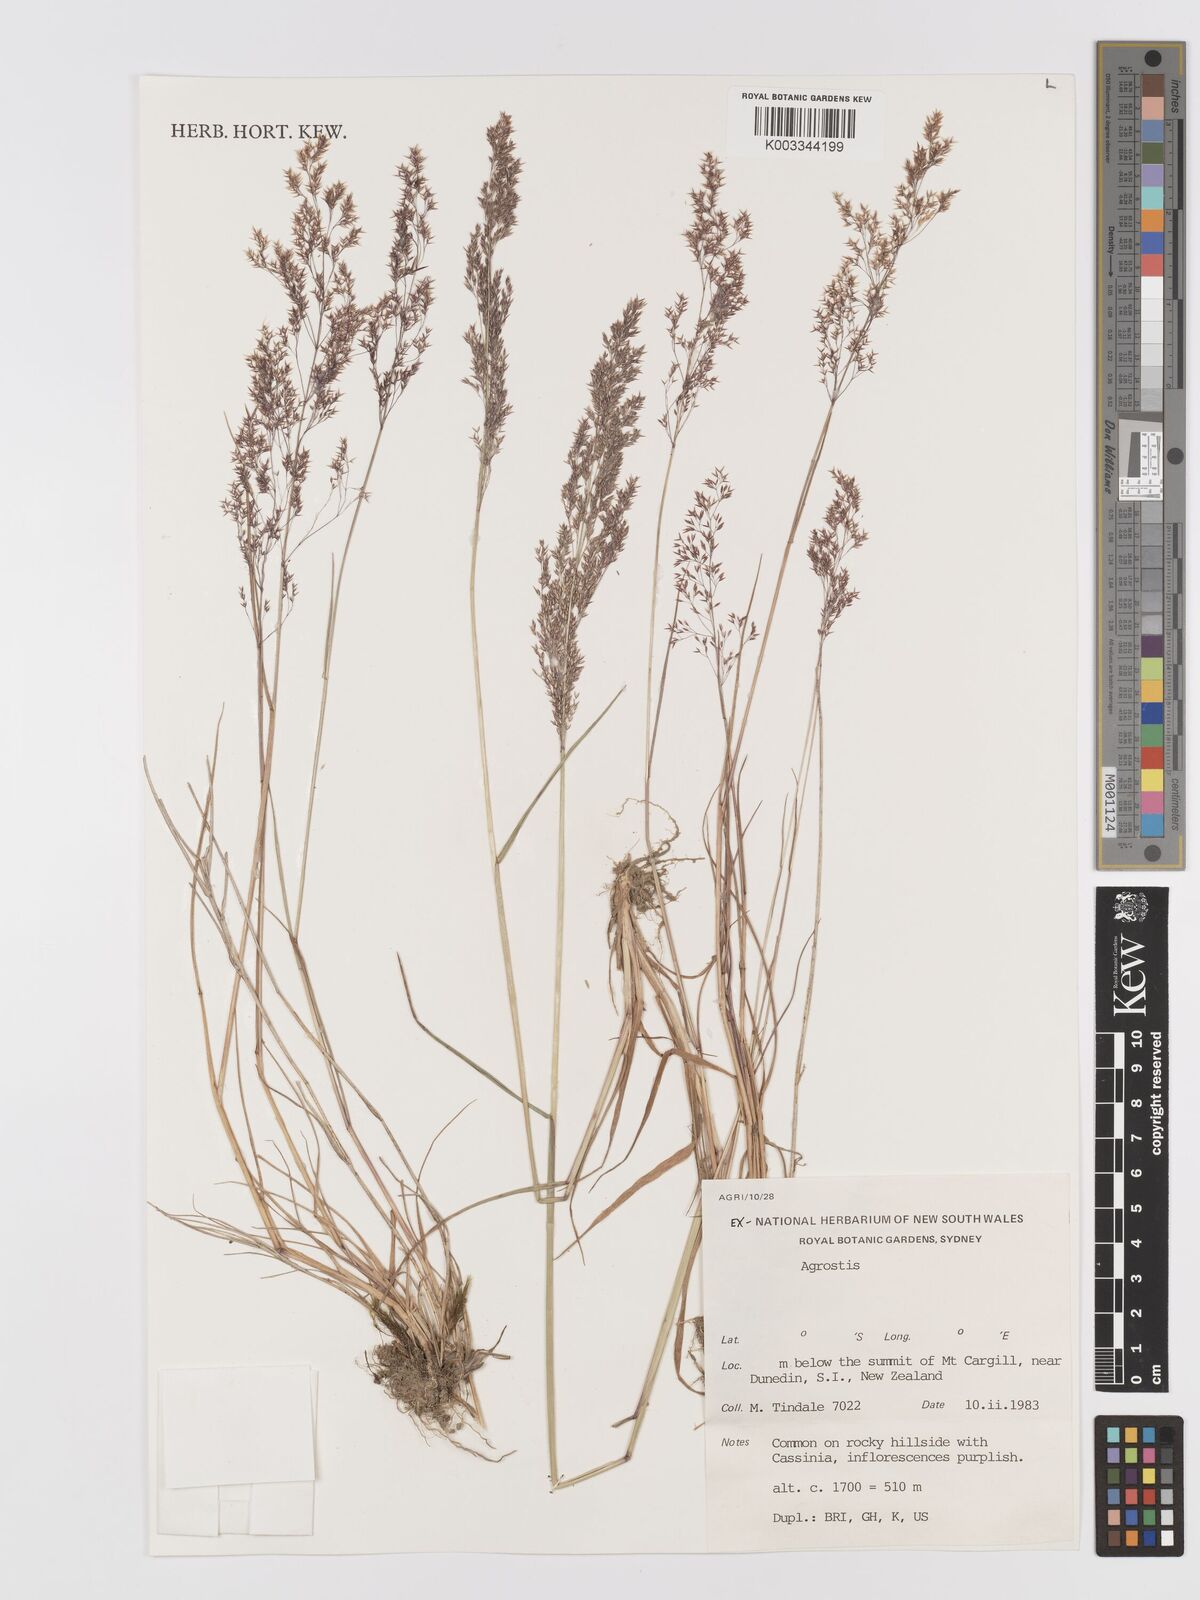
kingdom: Plantae
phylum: Tracheophyta
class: Liliopsida
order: Poales
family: Poaceae
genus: Agrostis
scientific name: Agrostis
